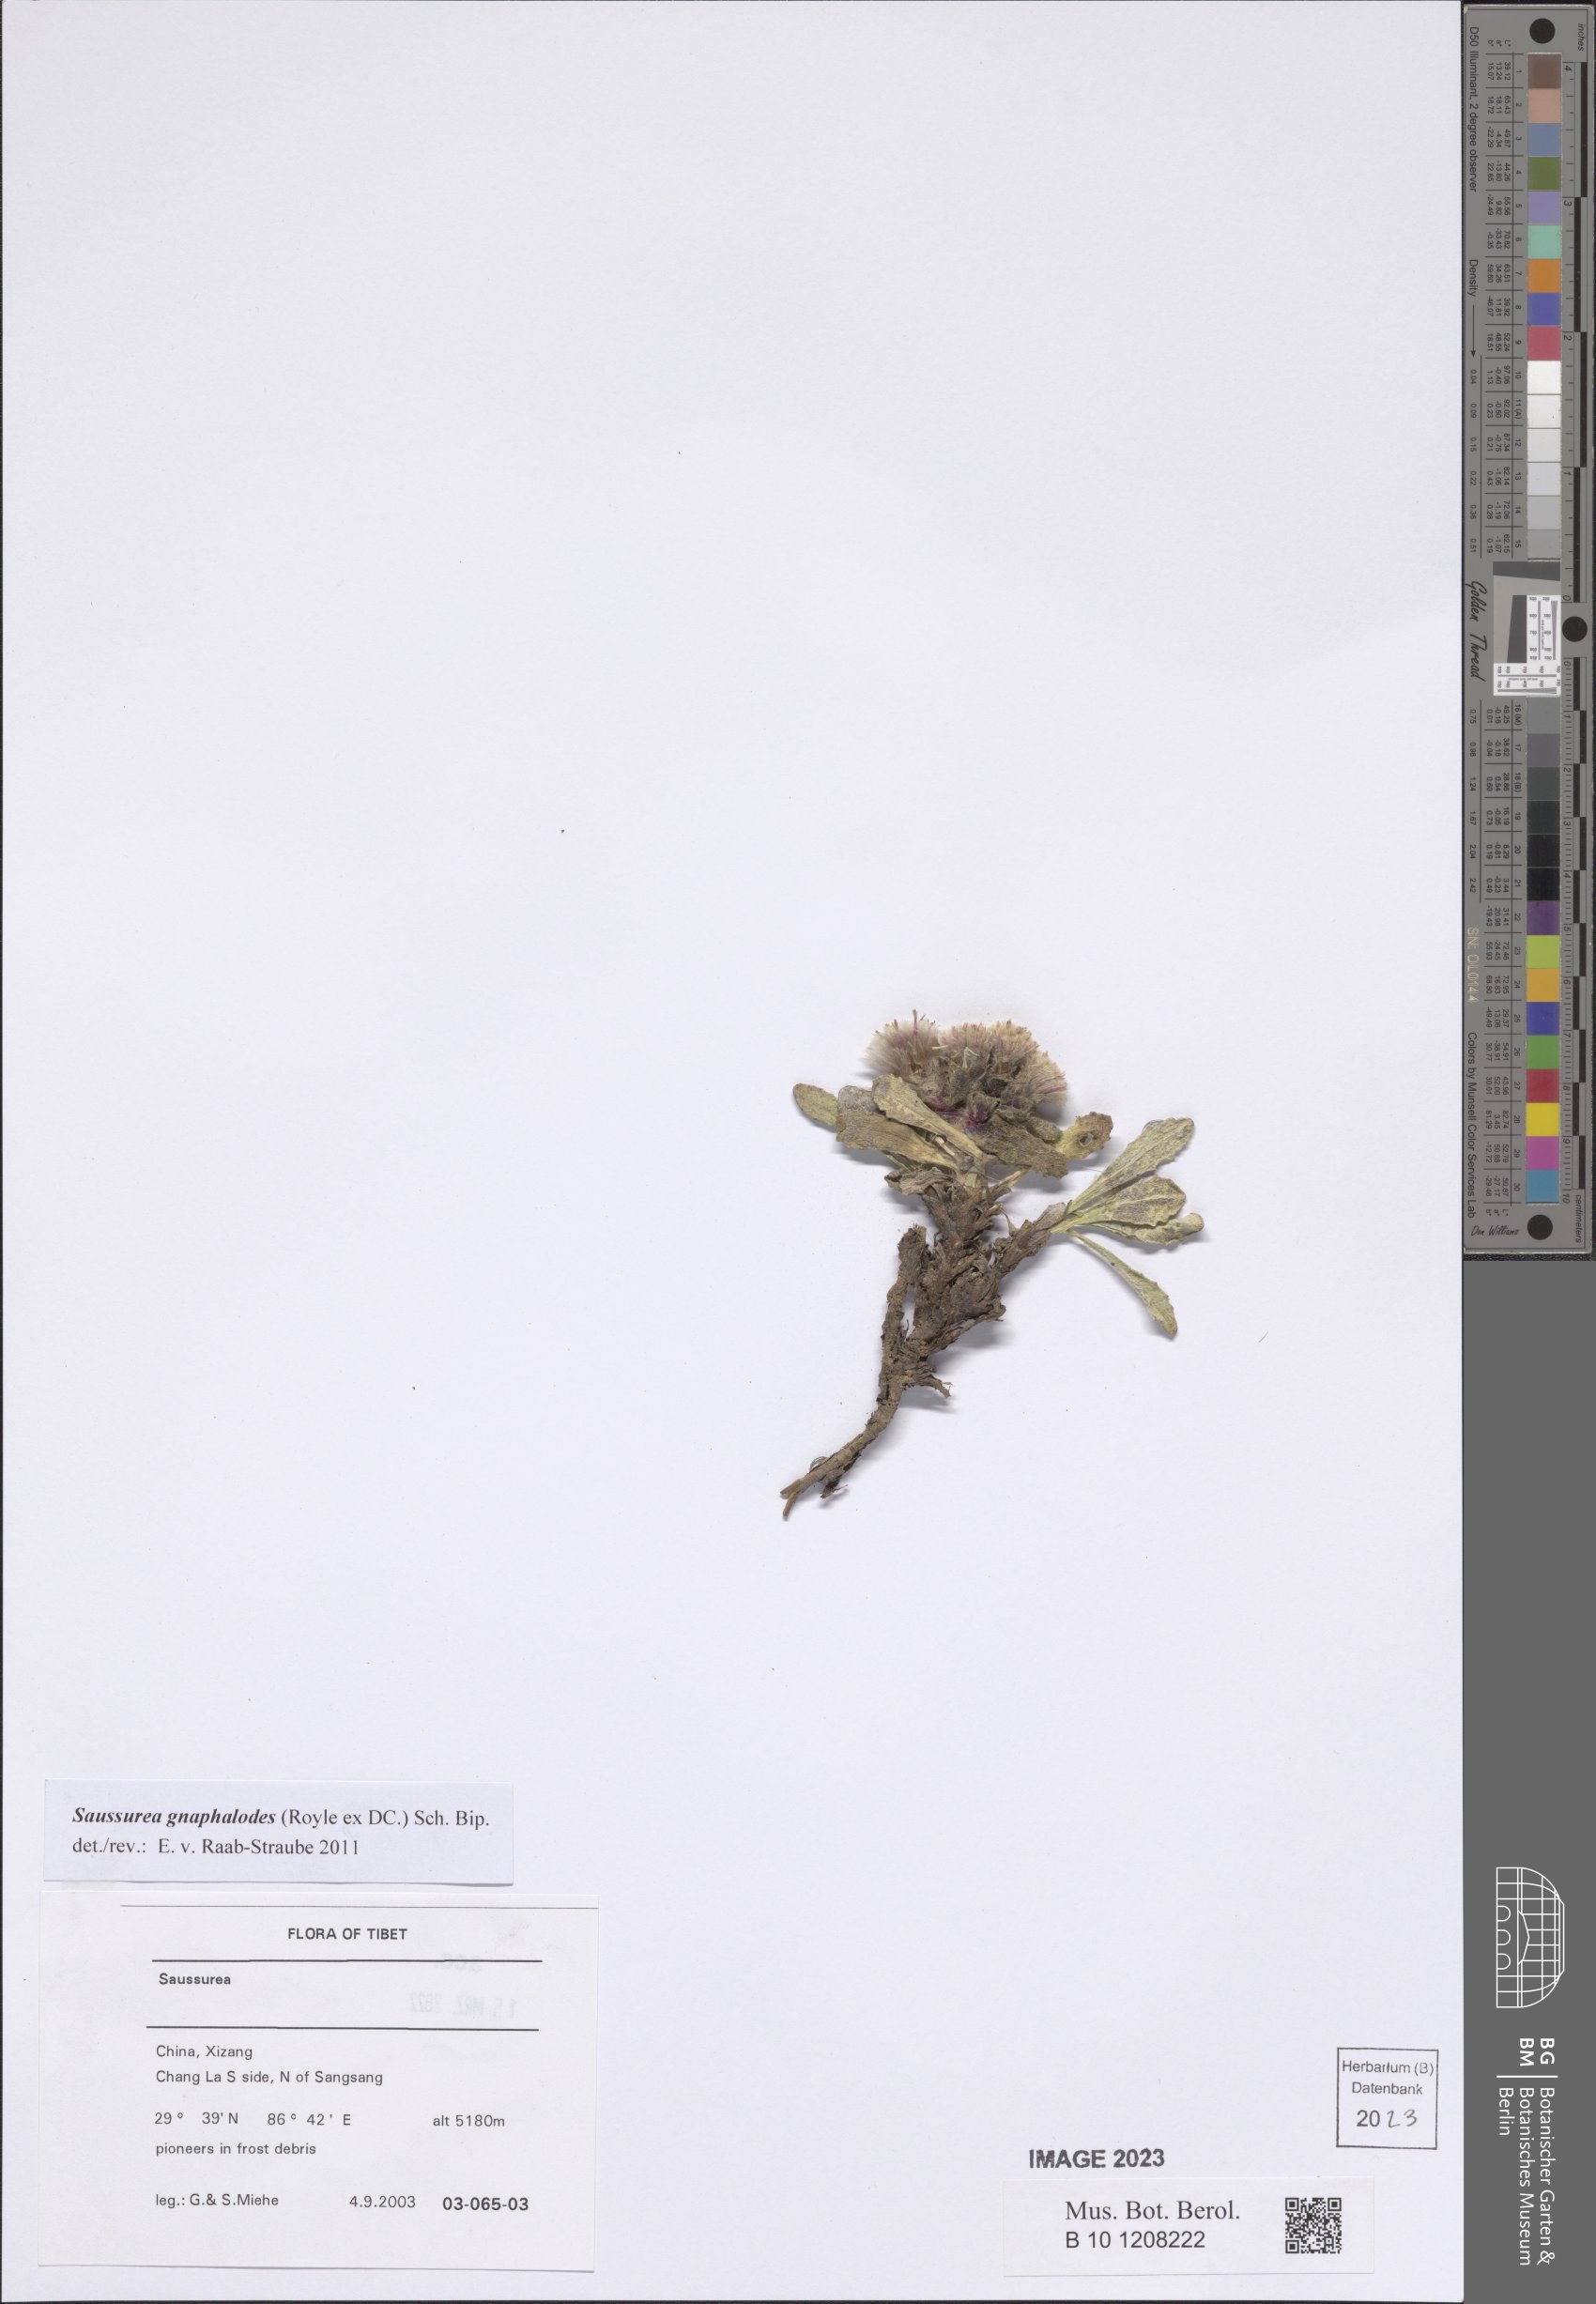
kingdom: Plantae
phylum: Tracheophyta
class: Magnoliopsida
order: Asterales
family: Asteraceae
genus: Saussurea
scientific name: Saussurea gnaphalodes
